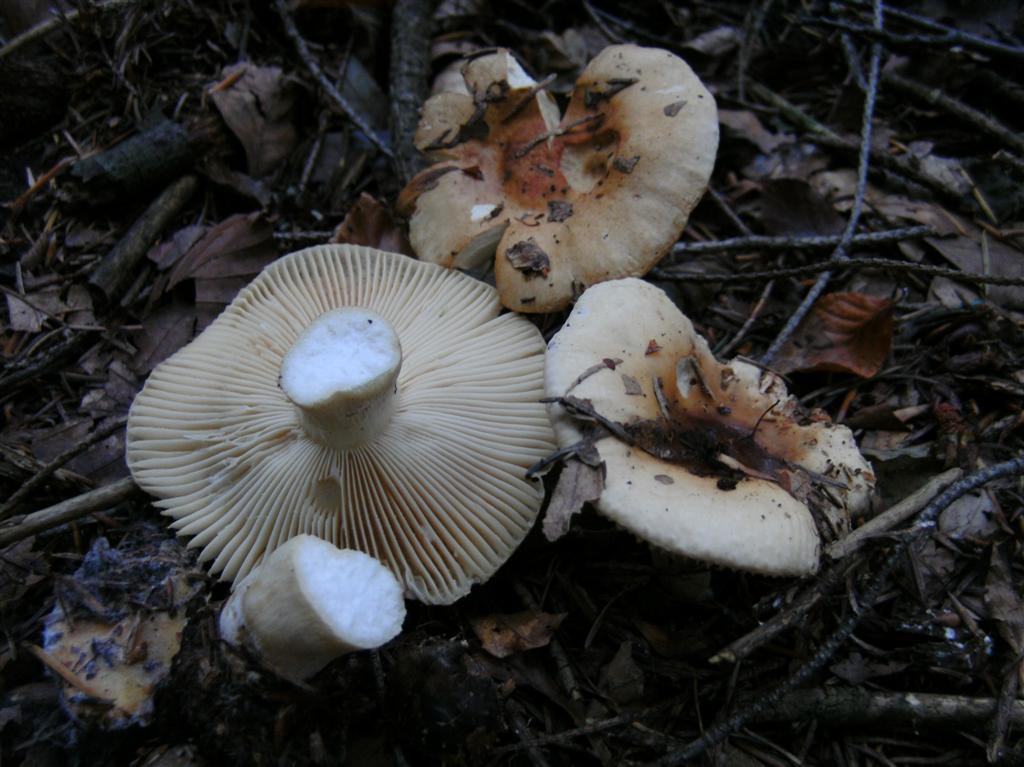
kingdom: Fungi
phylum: Basidiomycota
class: Agaricomycetes
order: Russulales
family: Russulaceae
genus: Russula
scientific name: Russula fellea
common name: galde-skørhat
